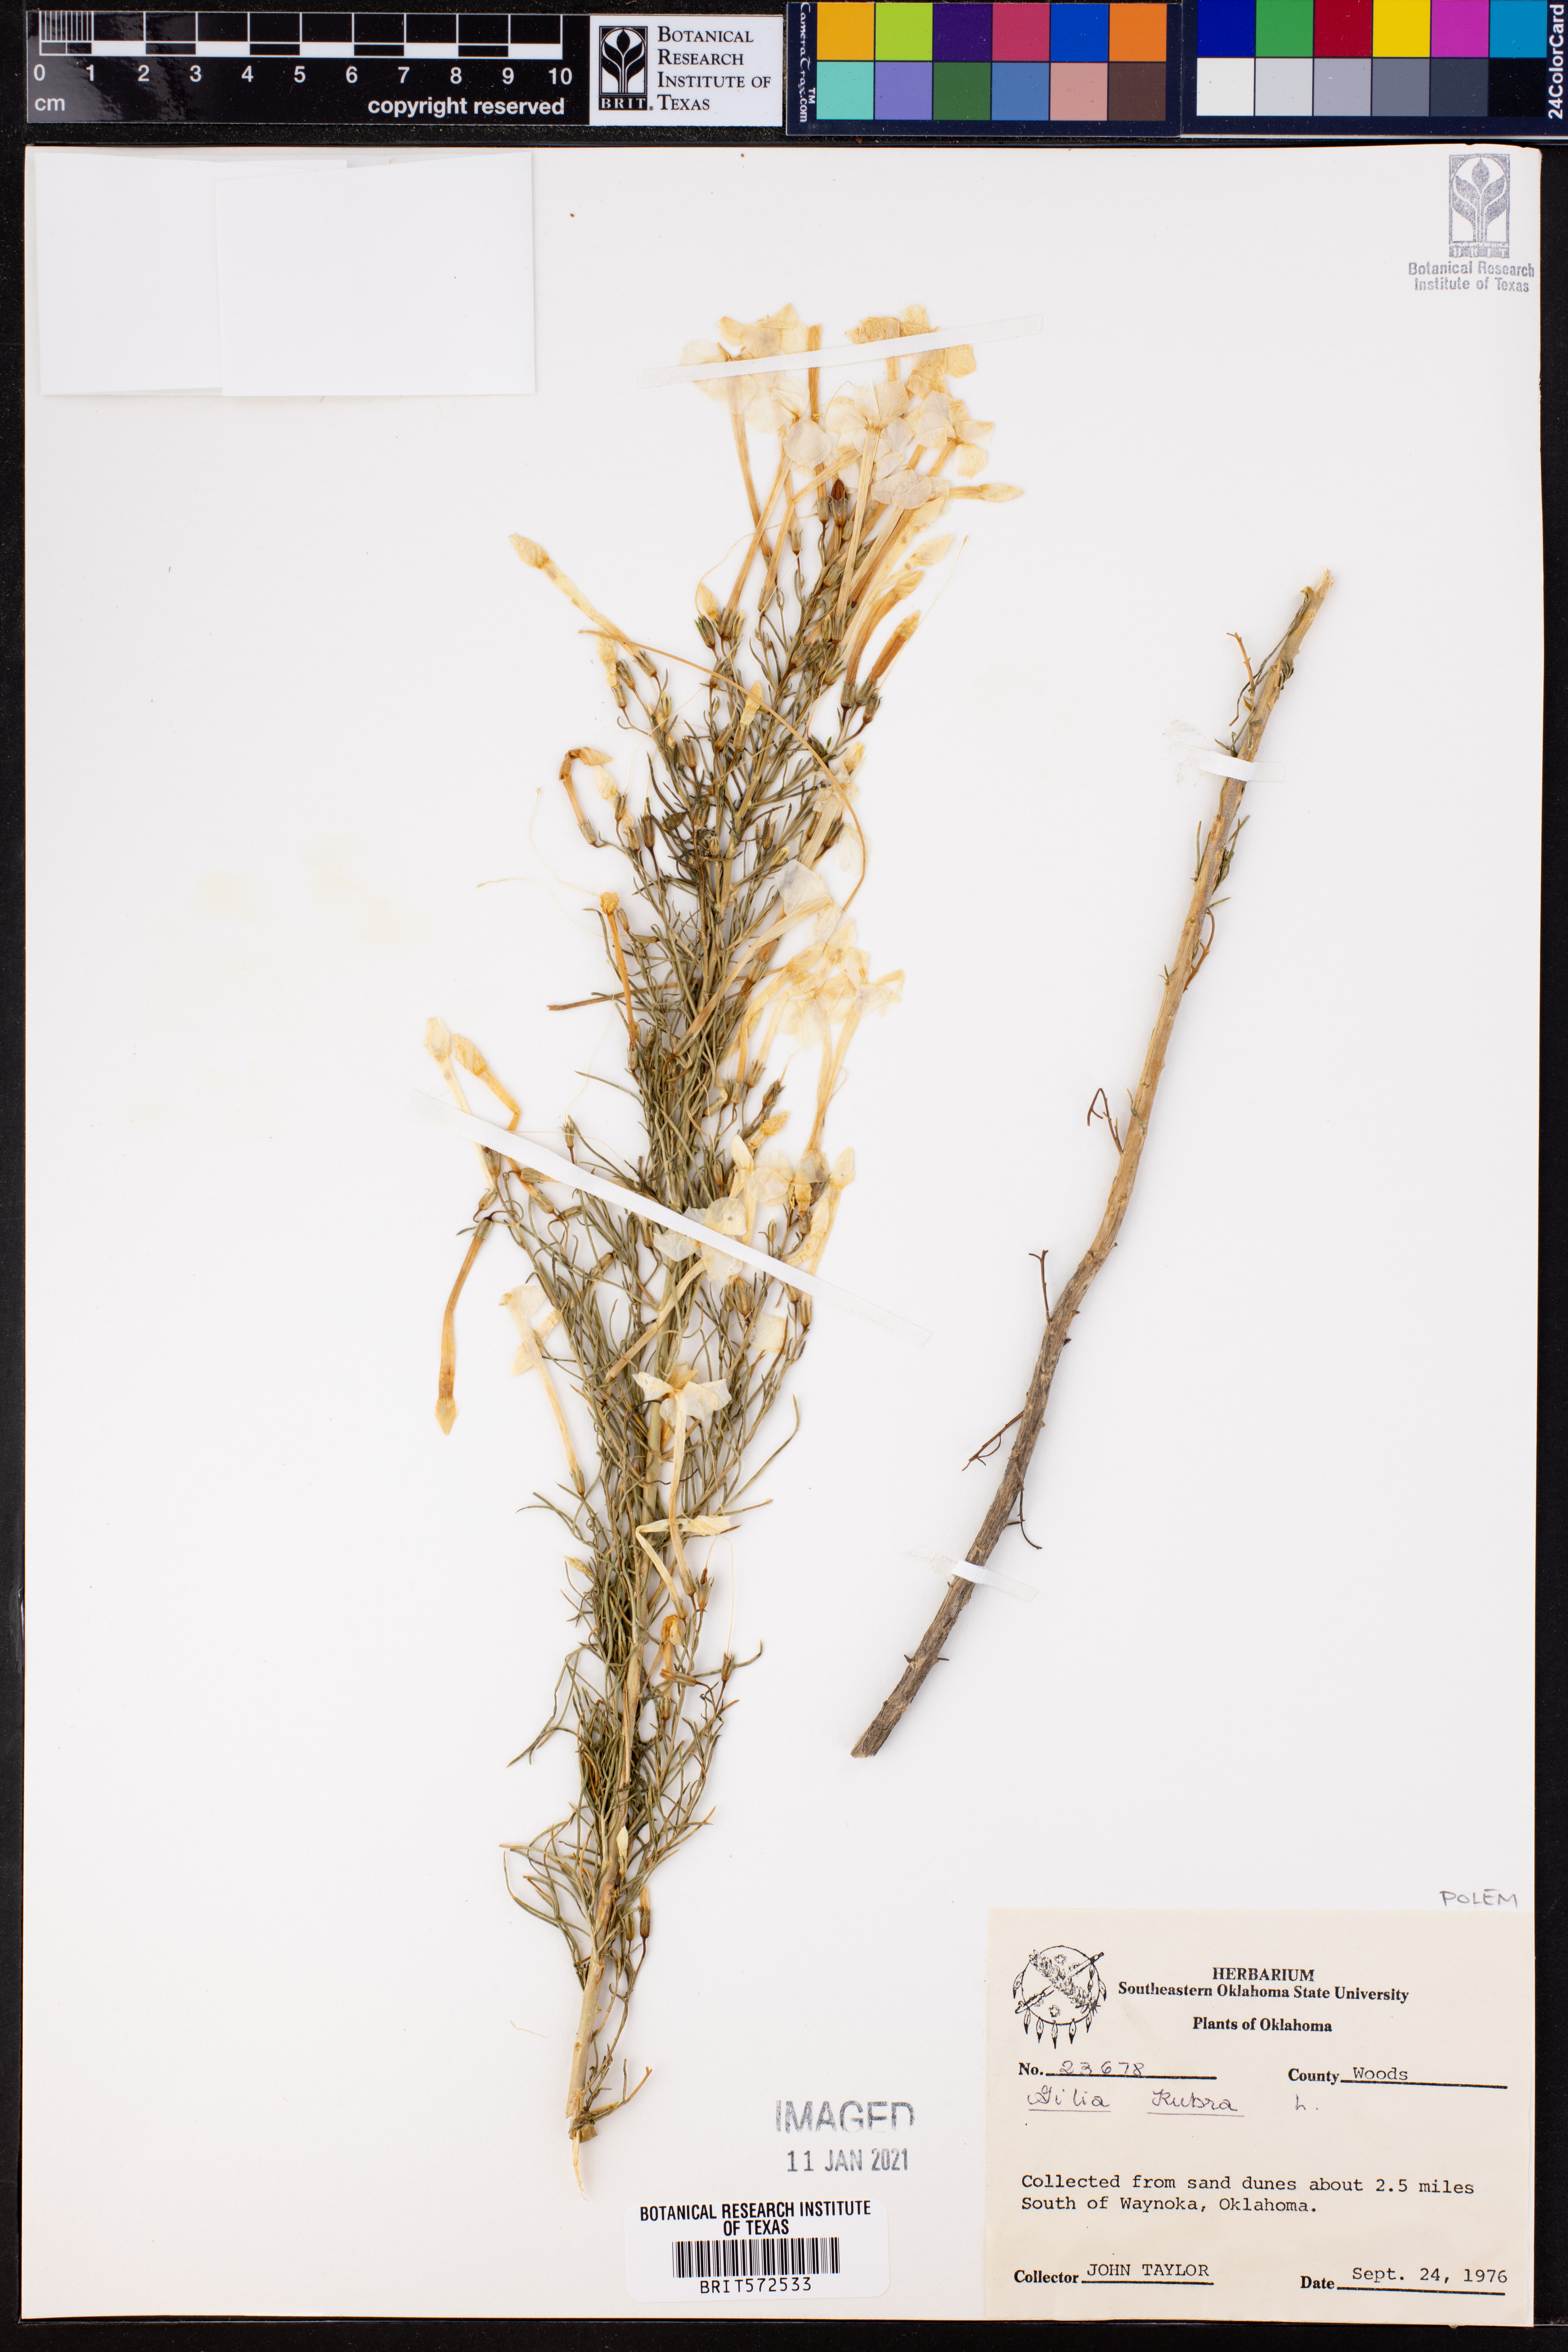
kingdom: Plantae
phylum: Tracheophyta
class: Magnoliopsida
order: Ericales
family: Polemoniaceae
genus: Ipomopsis
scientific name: Ipomopsis rubra
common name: Skyrocket
